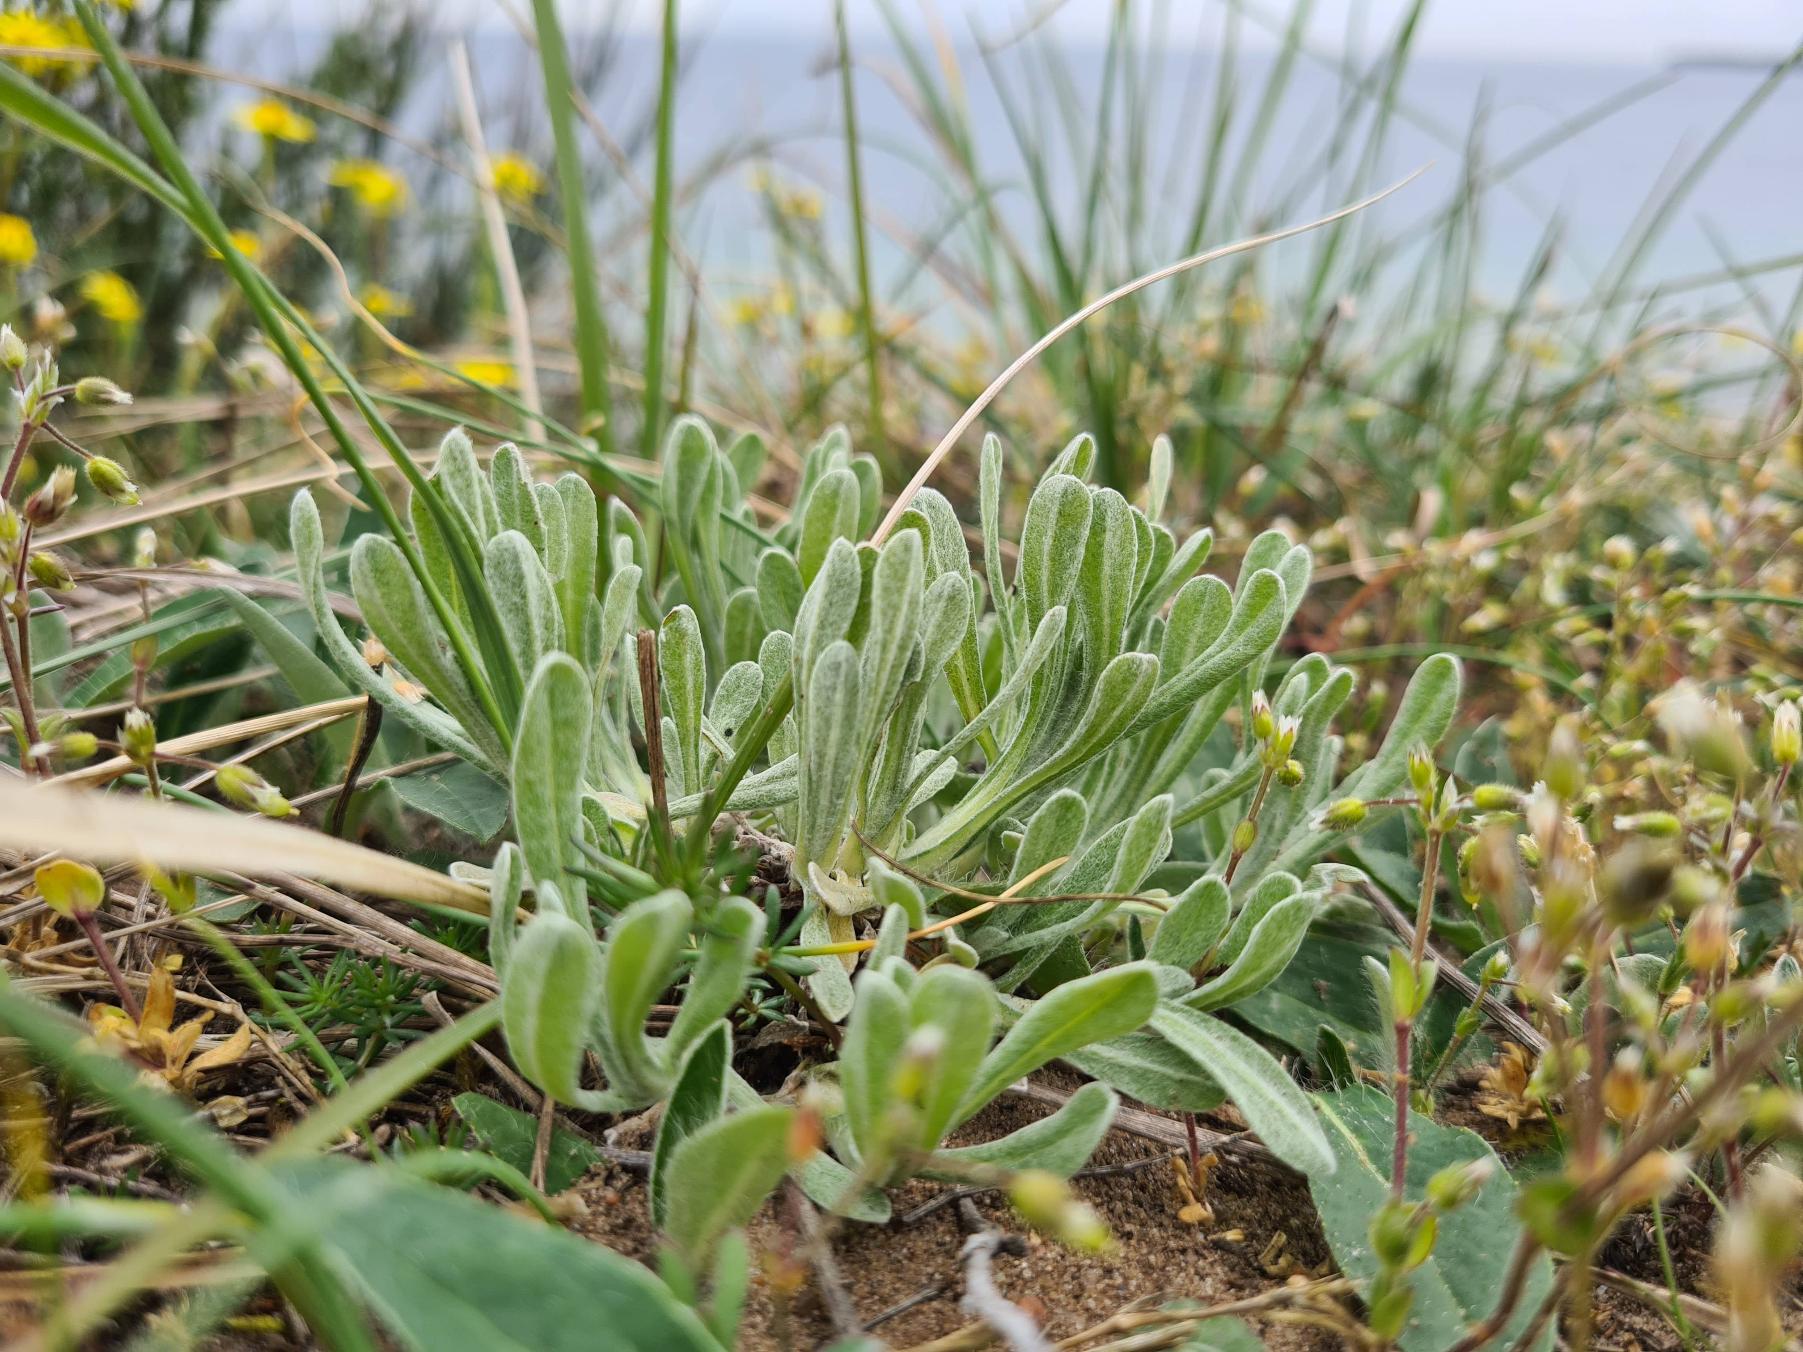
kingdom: Plantae
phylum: Tracheophyta
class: Magnoliopsida
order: Asterales
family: Asteraceae
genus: Helichrysum
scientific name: Helichrysum arenarium
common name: Gul evighedsblomst
